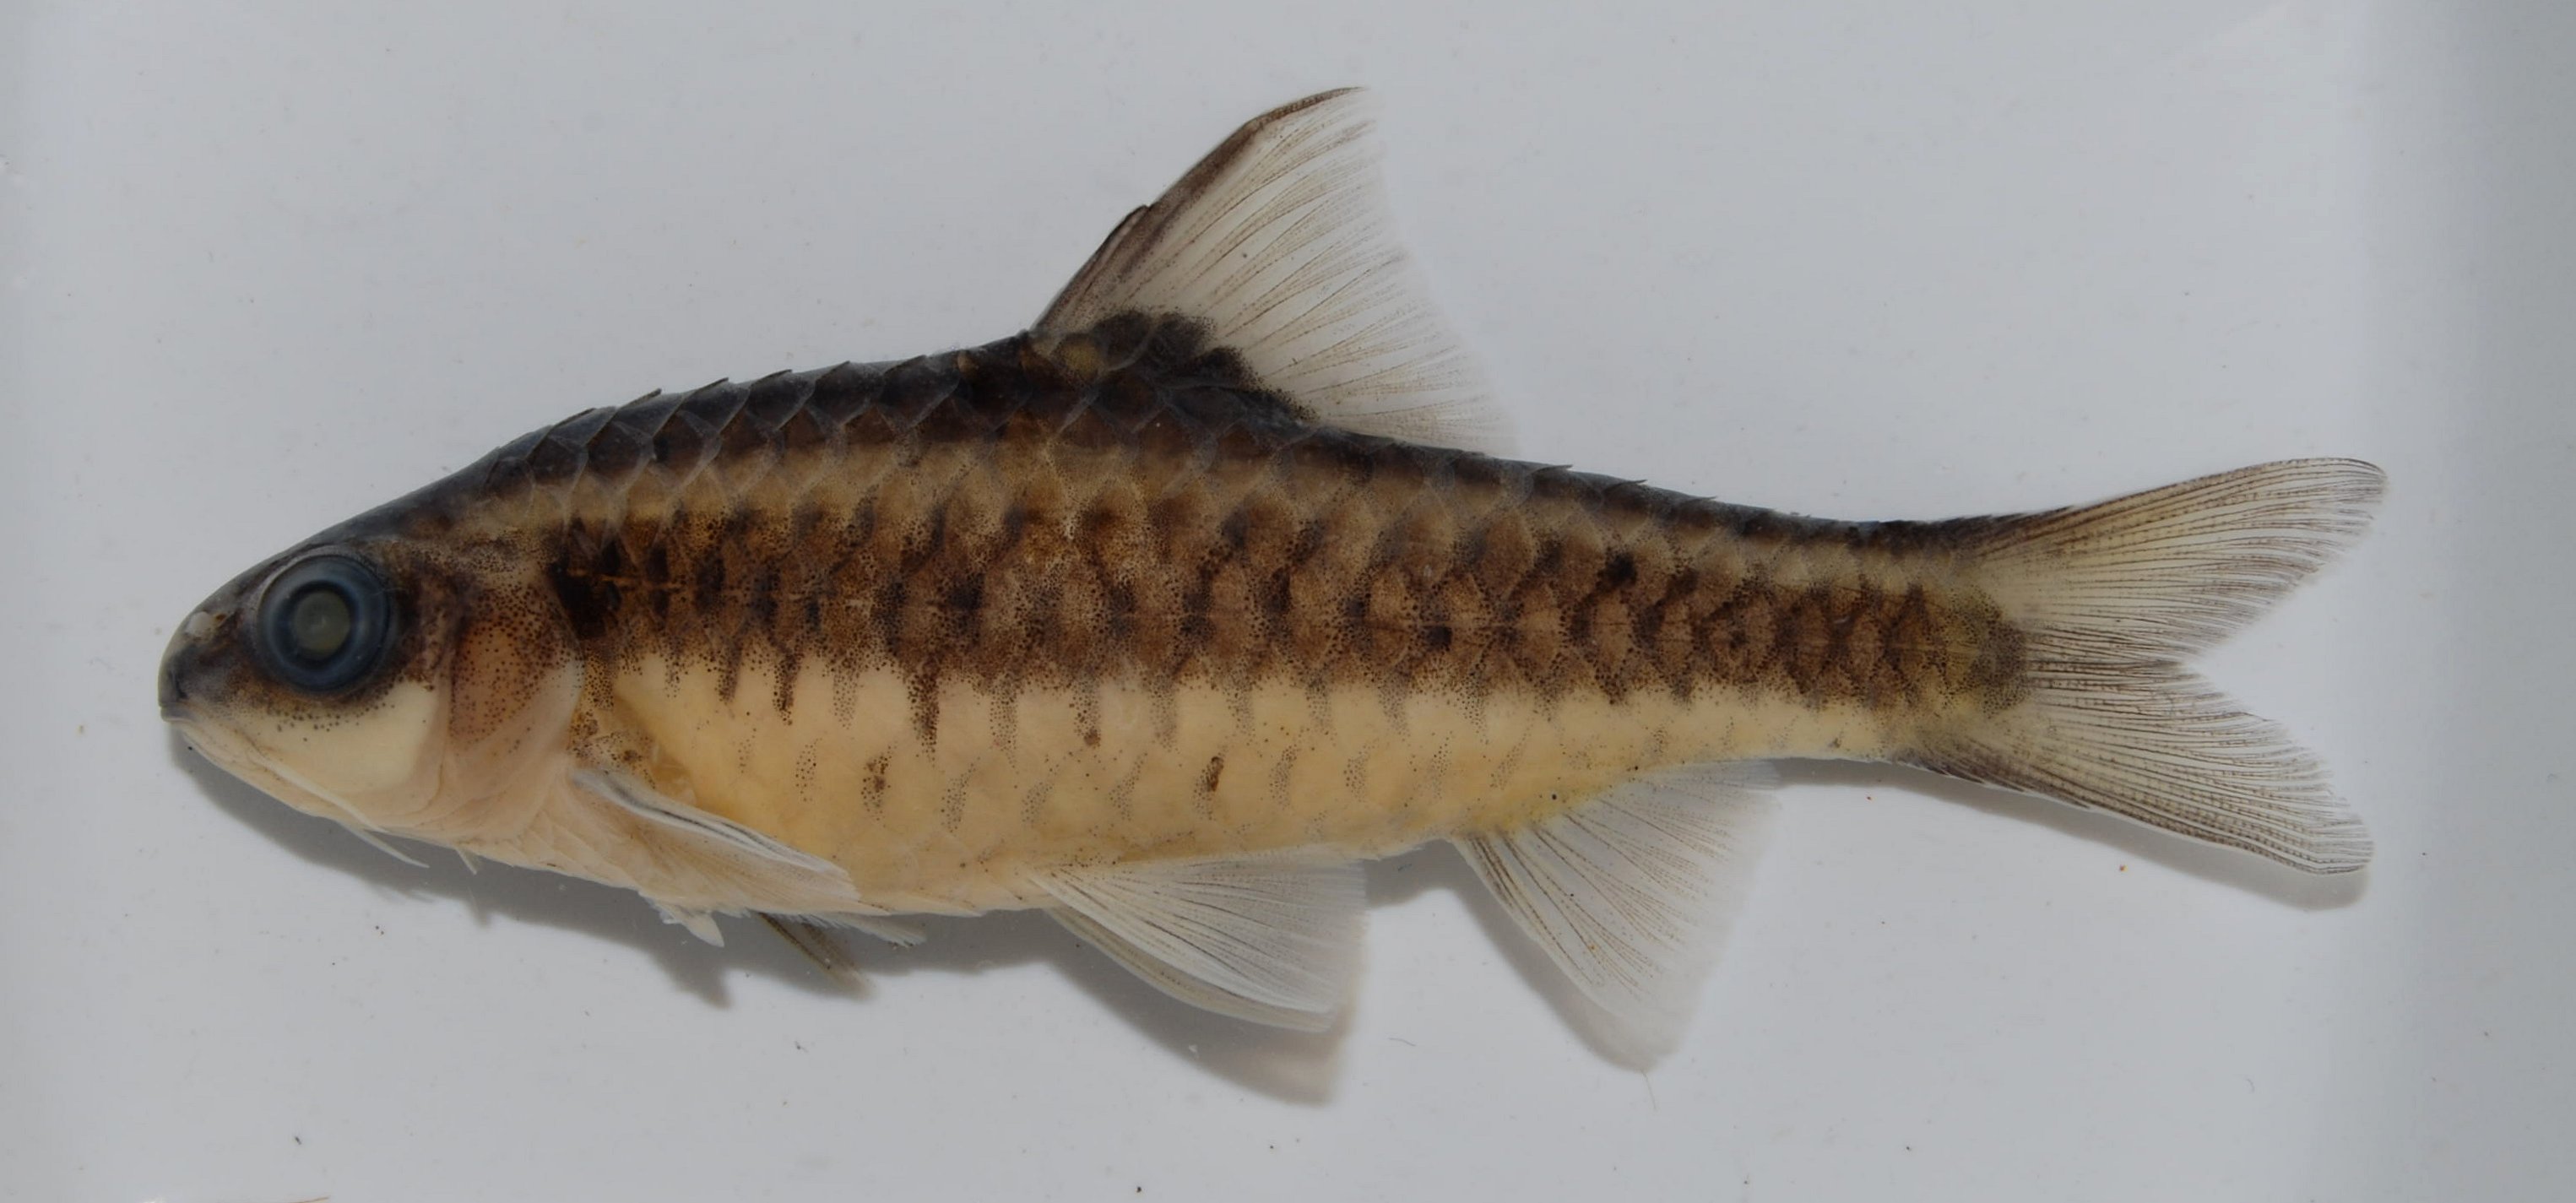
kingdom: Animalia
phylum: Chordata
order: Cypriniformes
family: Cyprinidae
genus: Enteromius
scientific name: Enteromius
